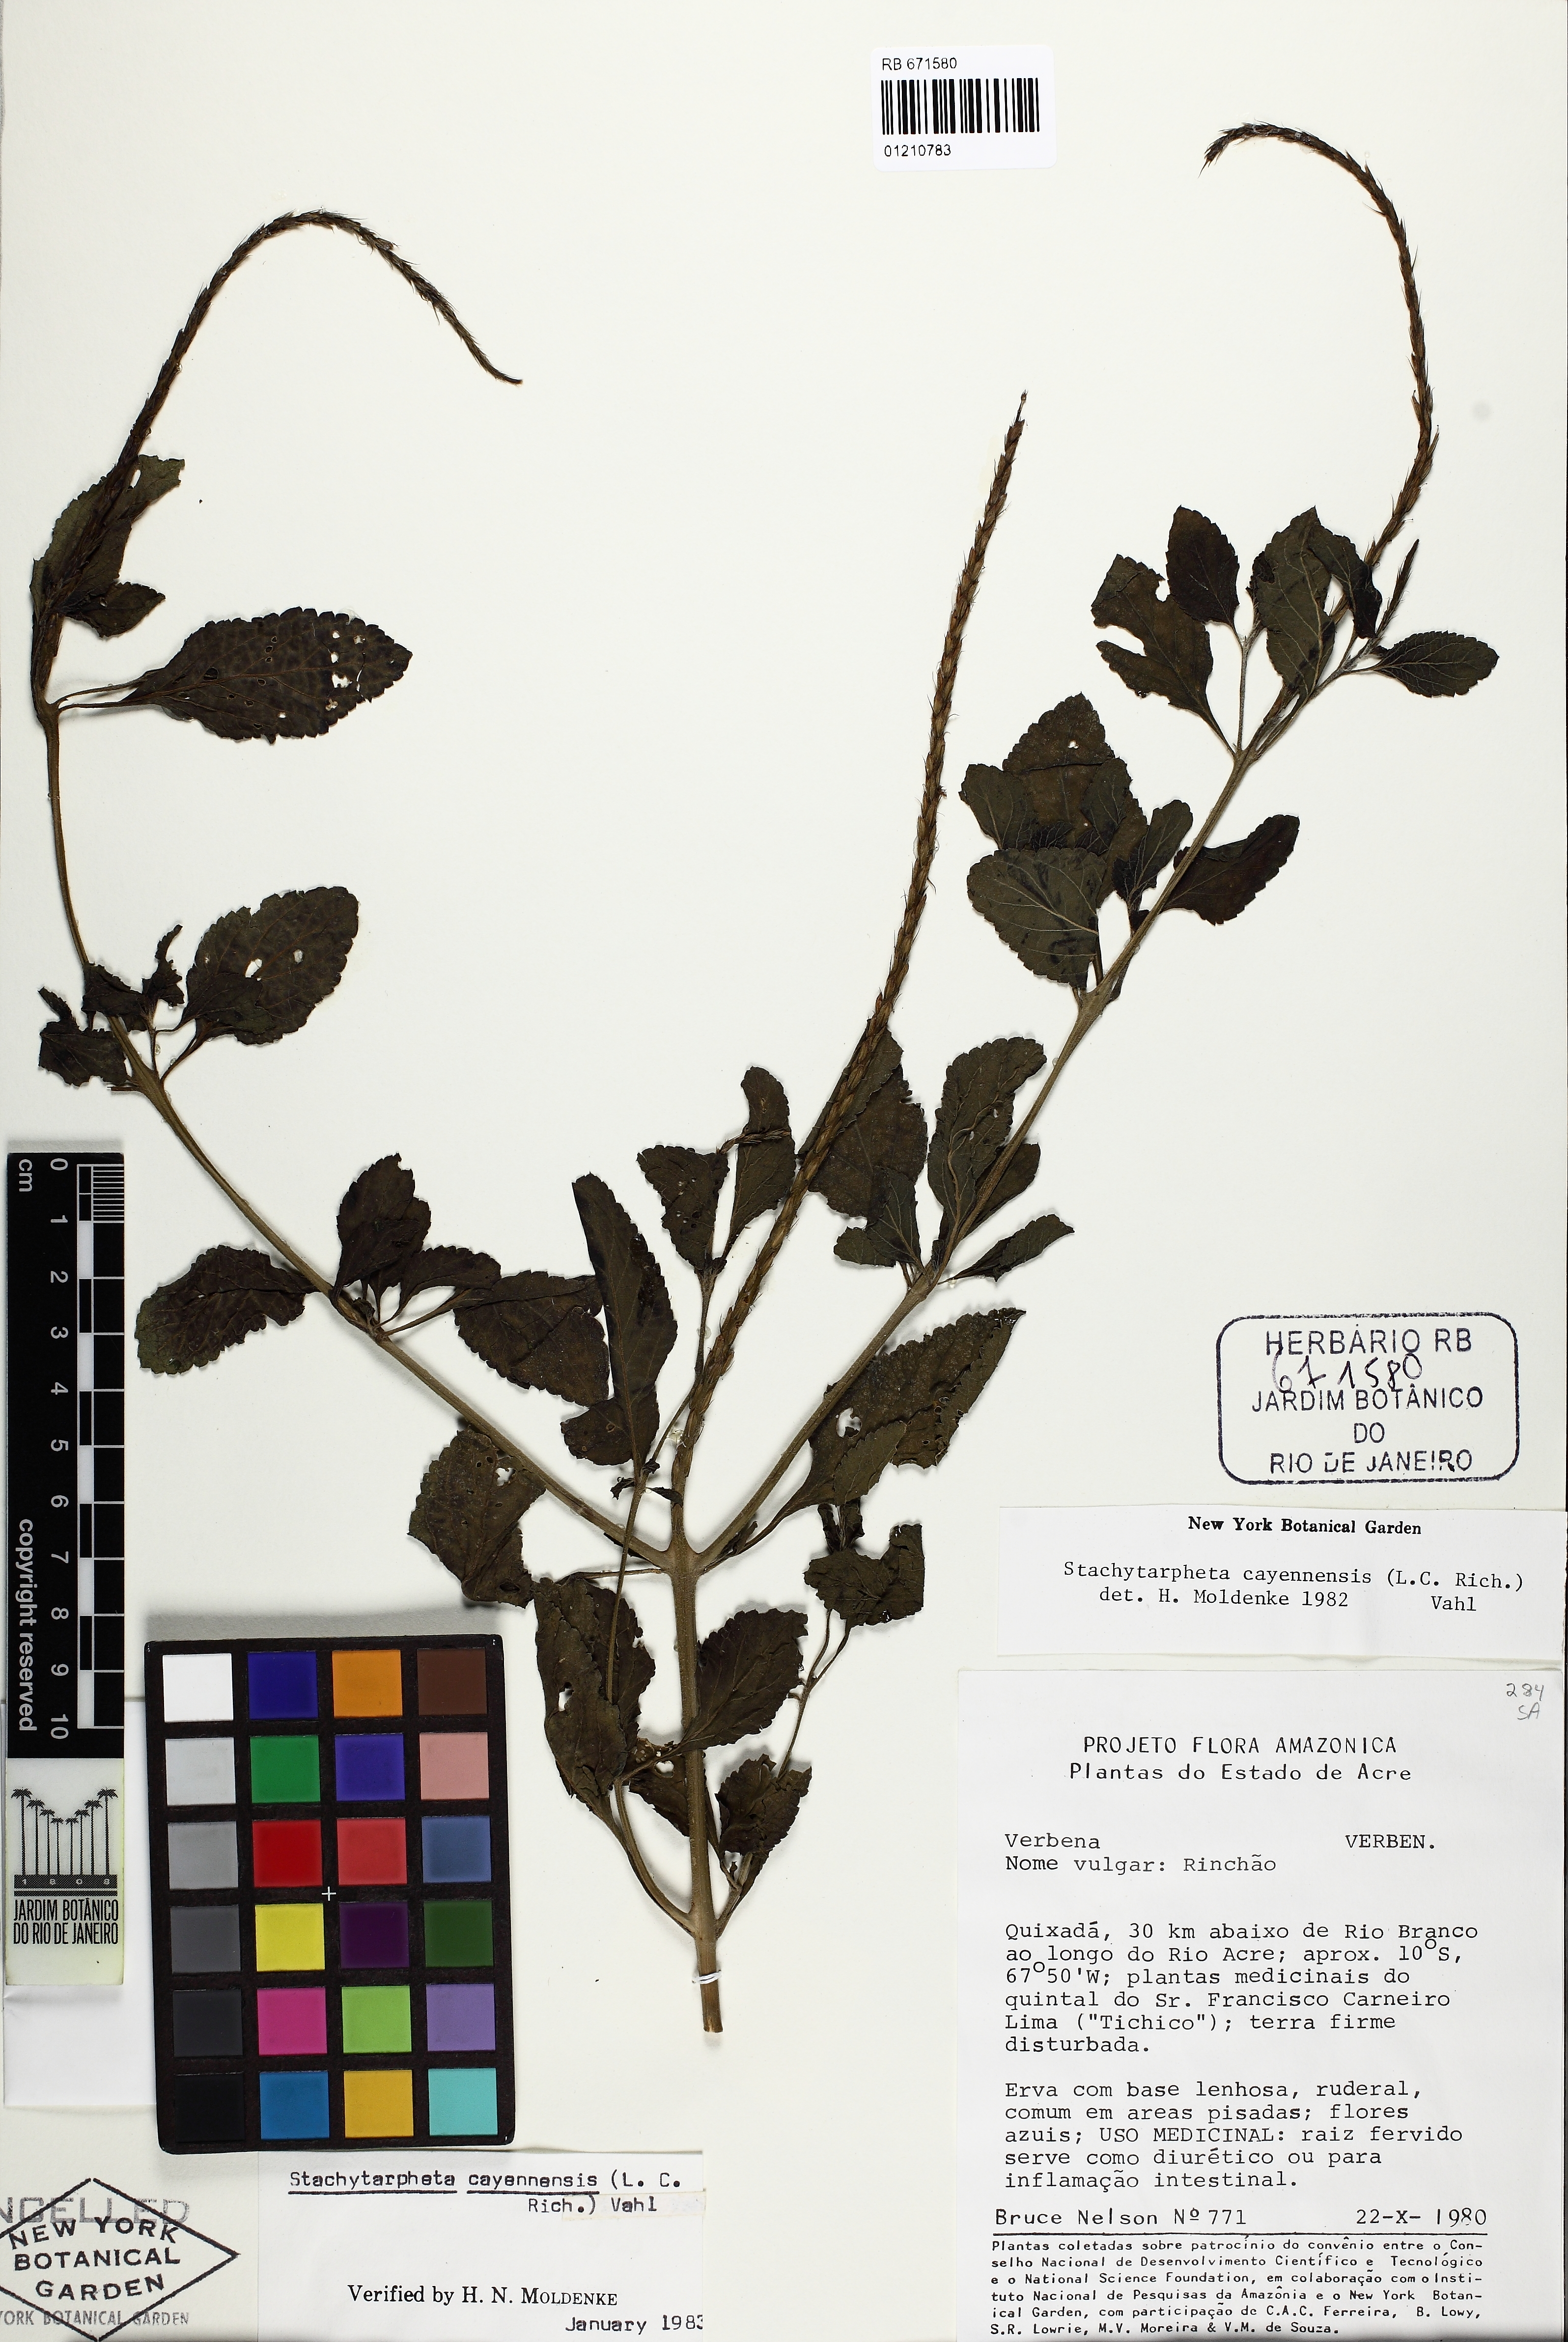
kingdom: Plantae
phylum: Tracheophyta
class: Magnoliopsida
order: Lamiales
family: Verbenaceae
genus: Stachytarpheta
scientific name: Stachytarpheta cayennensis
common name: Cayenne porterweed
